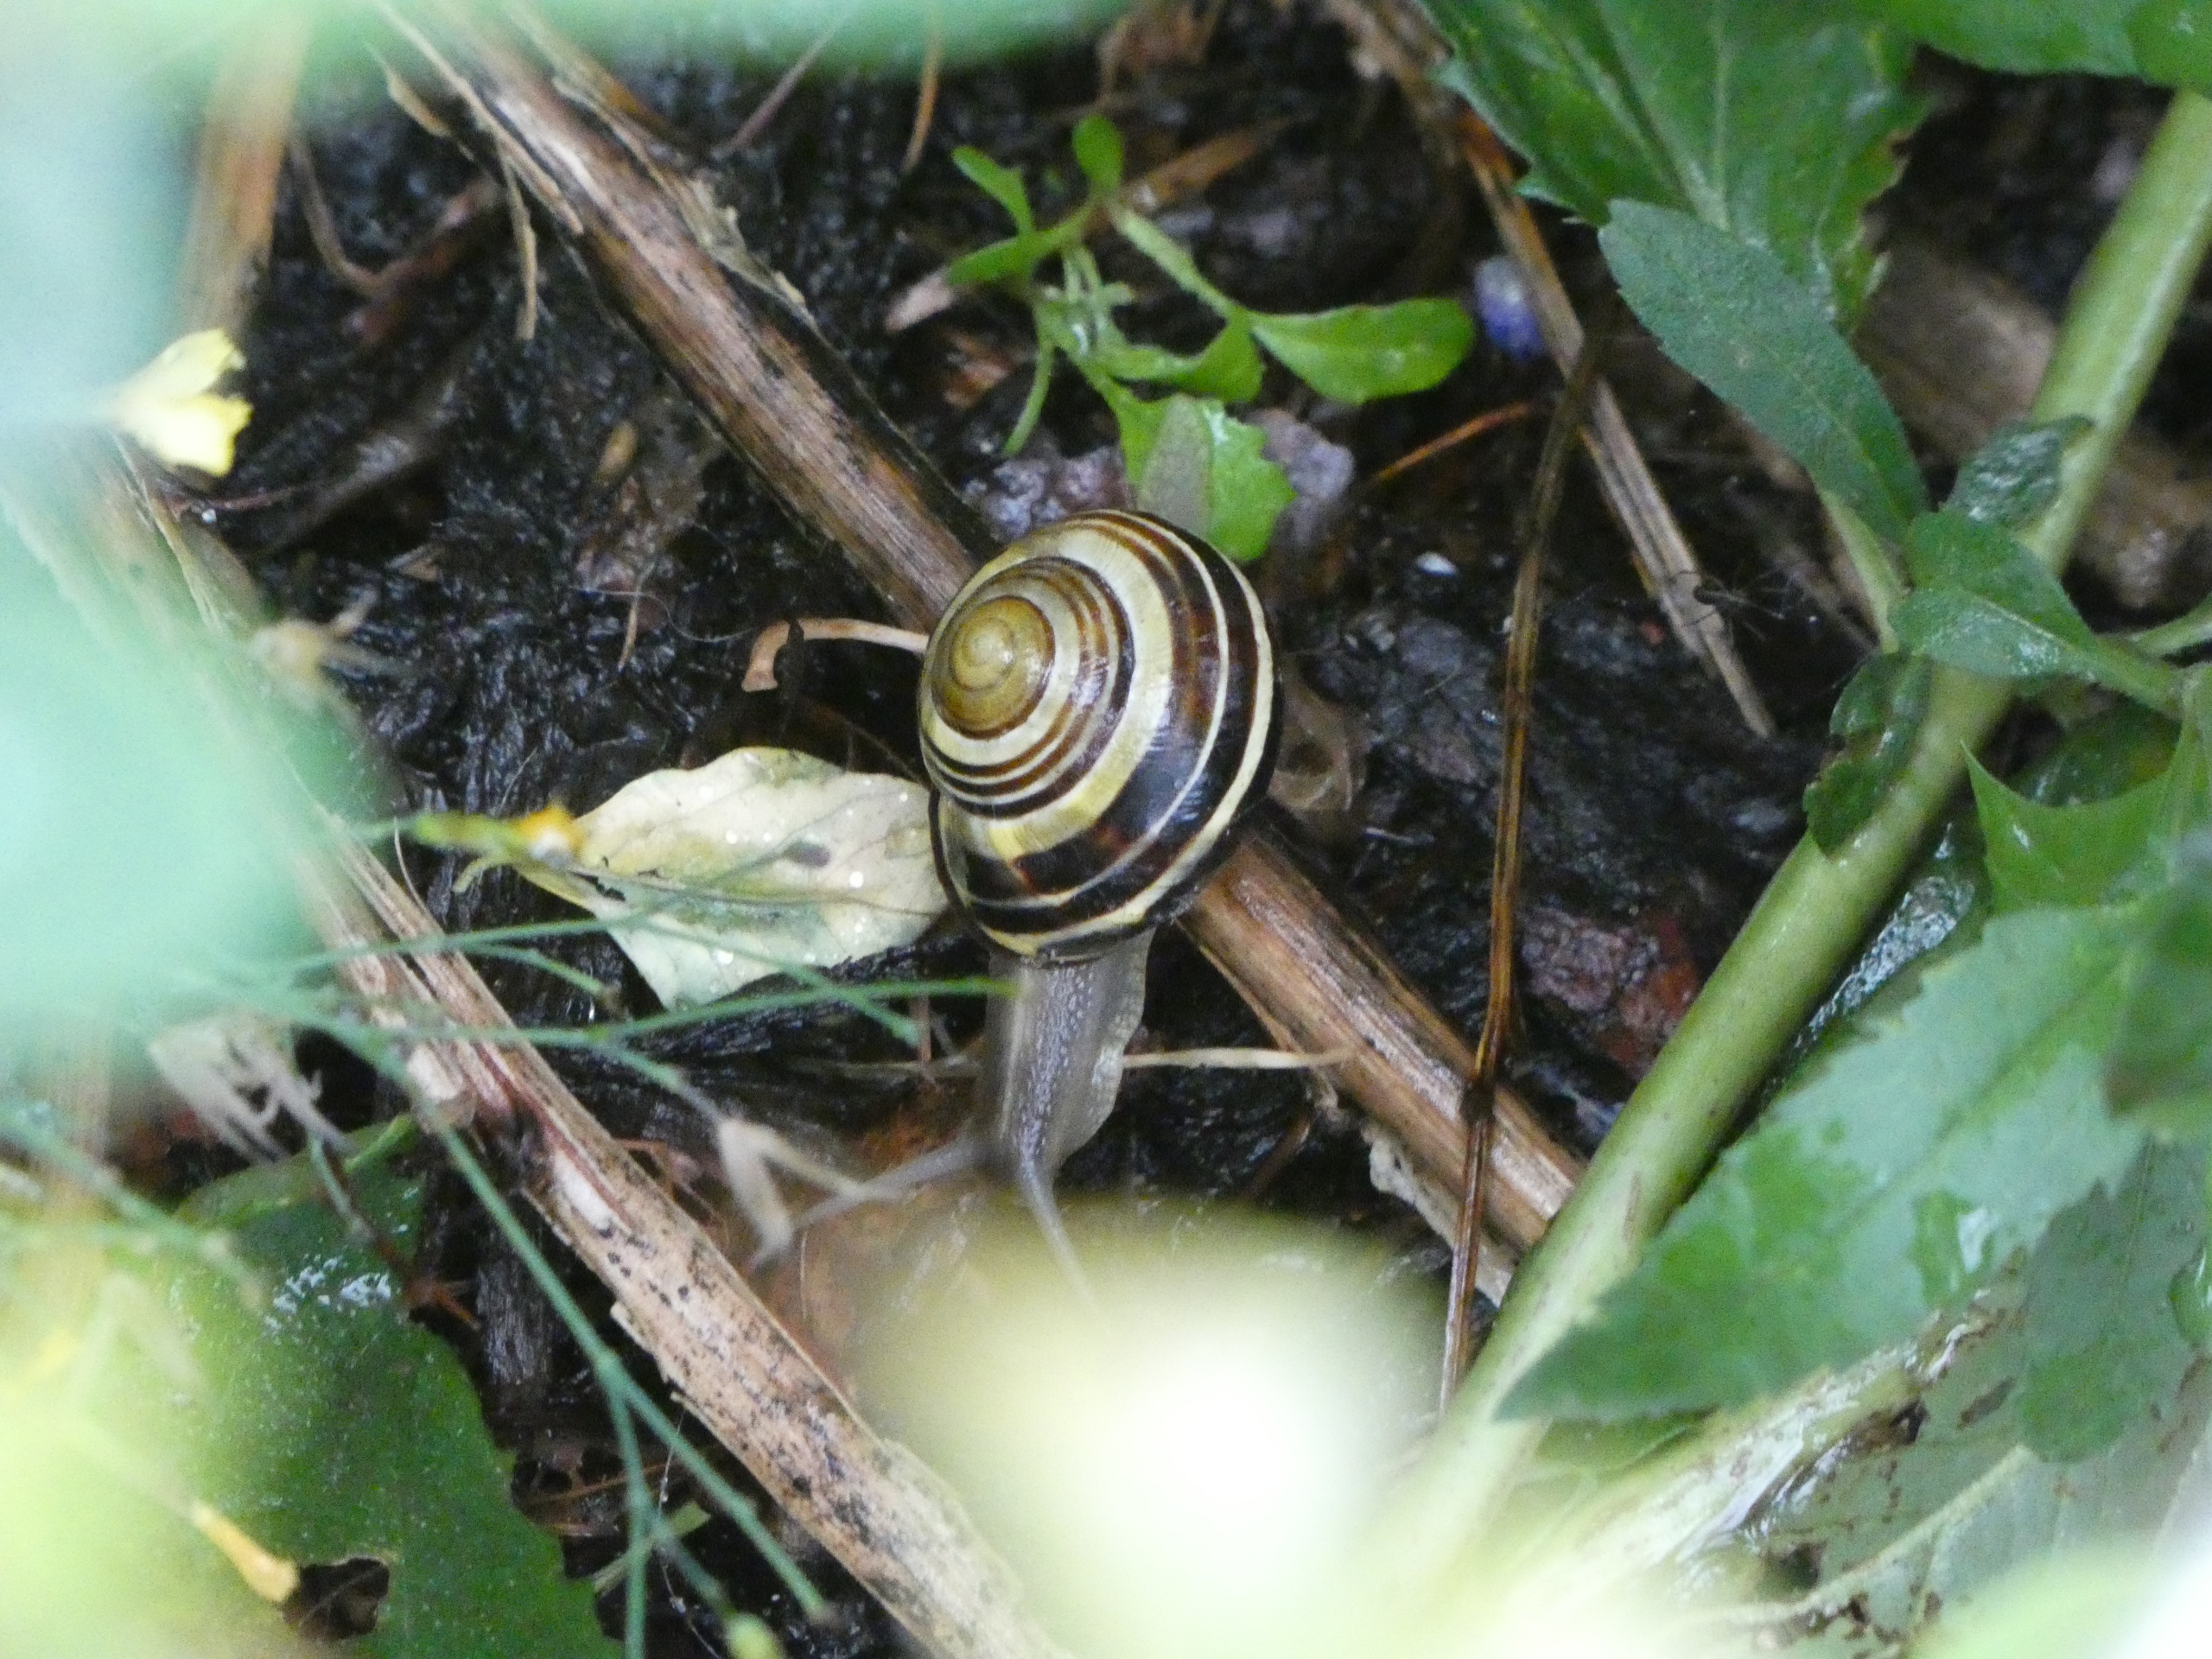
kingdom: Animalia
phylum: Mollusca
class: Gastropoda
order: Stylommatophora
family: Helicidae
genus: Cepaea
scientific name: Cepaea nemoralis
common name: Lundsnegl
